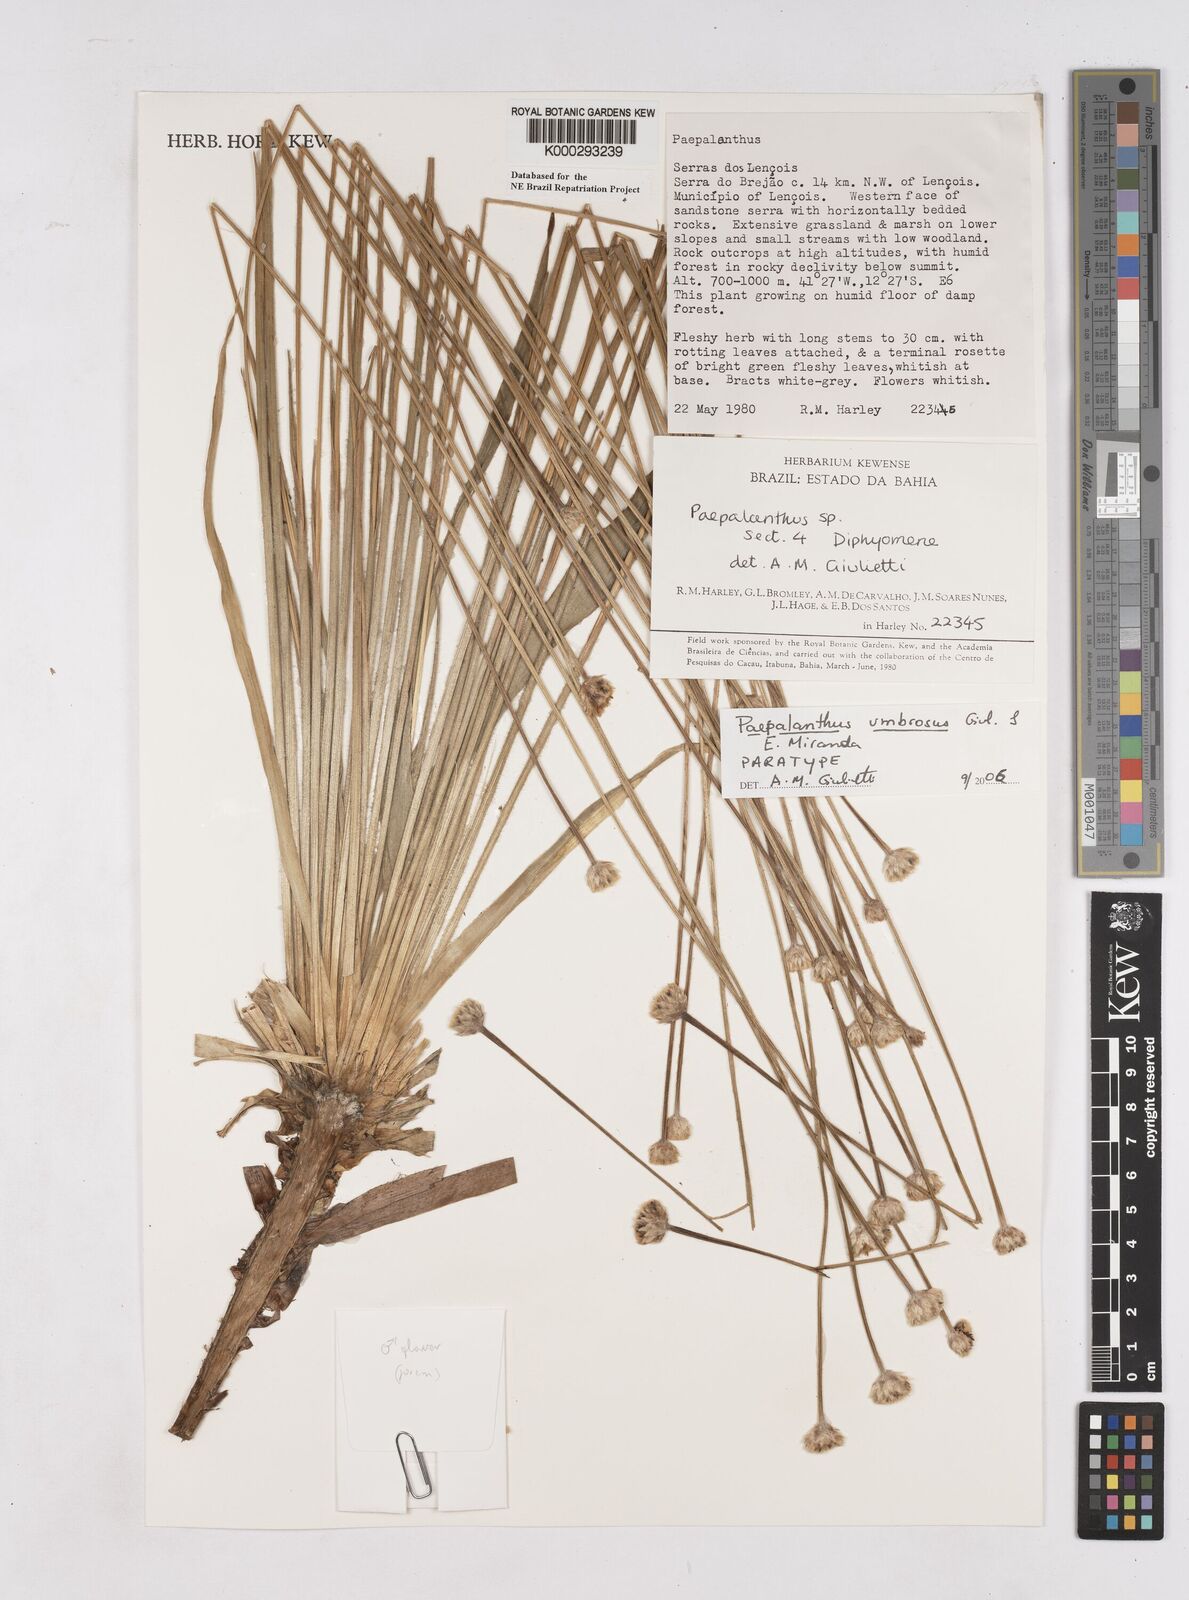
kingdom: Plantae
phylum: Tracheophyta
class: Liliopsida
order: Poales
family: Eriocaulaceae
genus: Eriocaulon
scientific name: Eriocaulon
